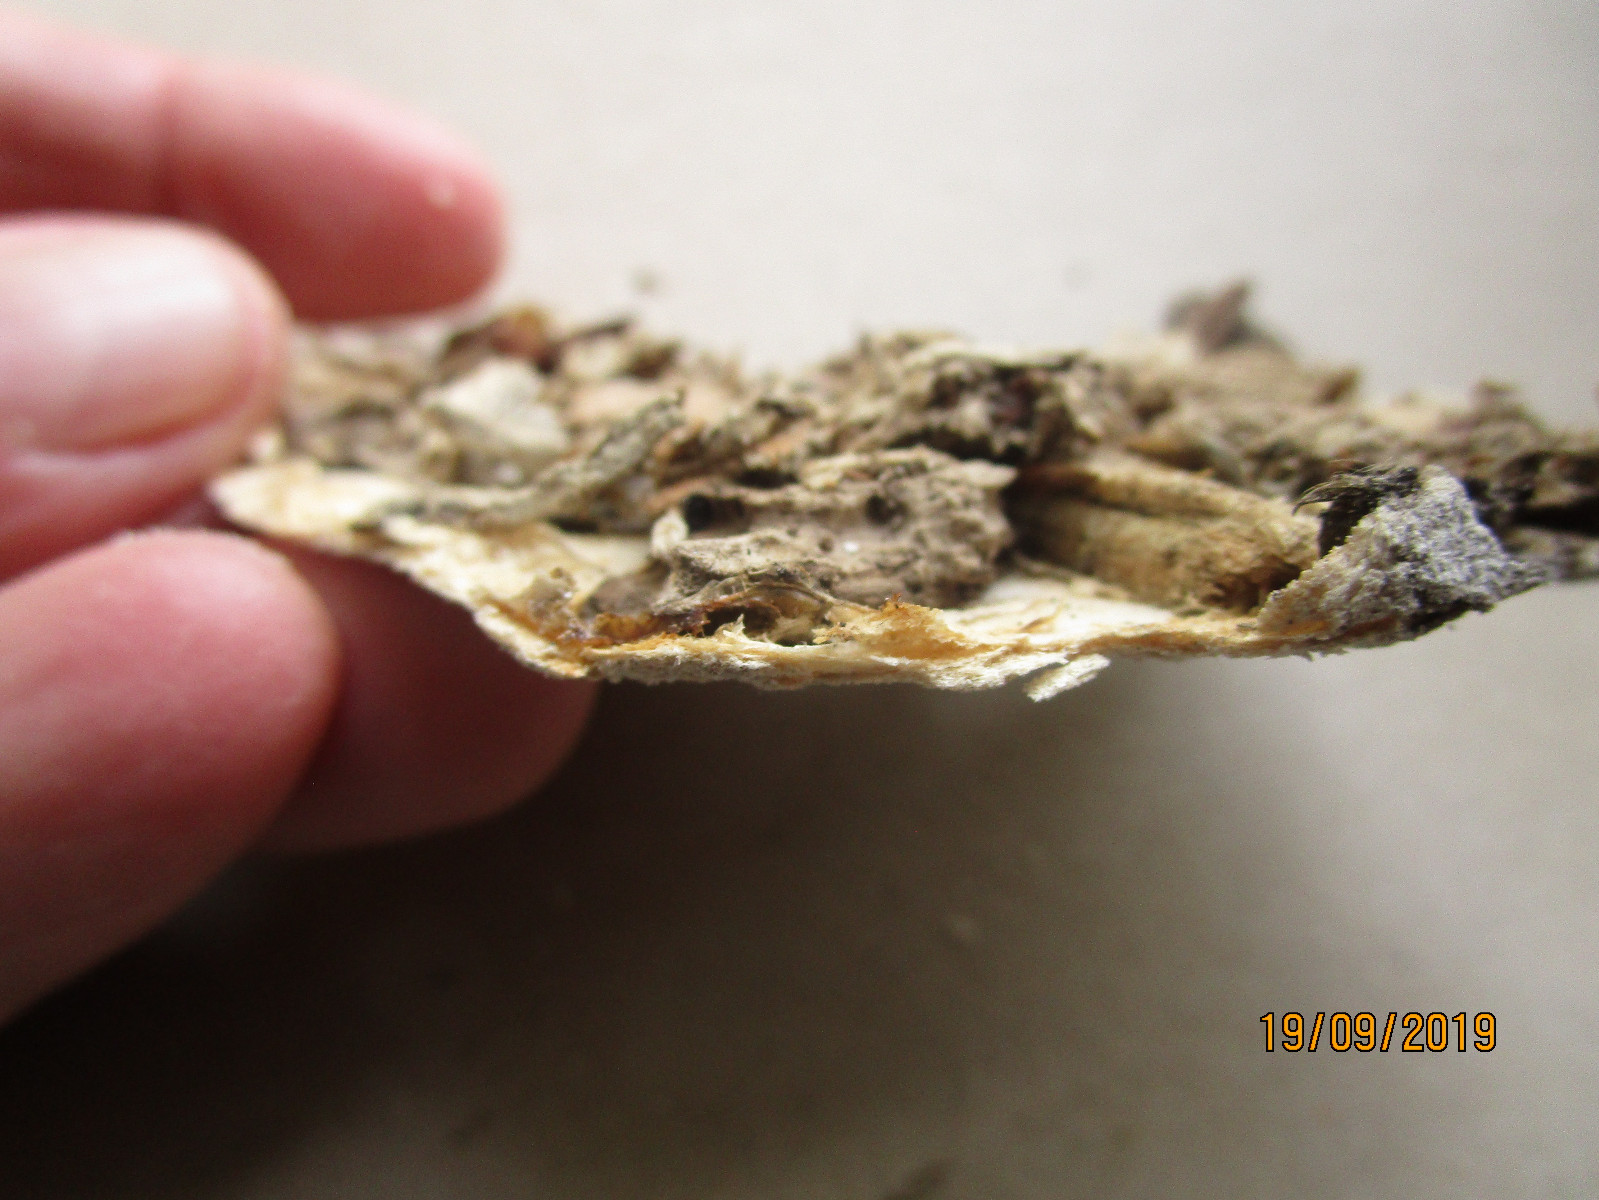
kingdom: Fungi
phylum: Basidiomycota
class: Agaricomycetes
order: Polyporales
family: Irpicaceae
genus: Gloeoporus
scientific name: Gloeoporus pannocinctus
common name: grøngul foldporesvamp
